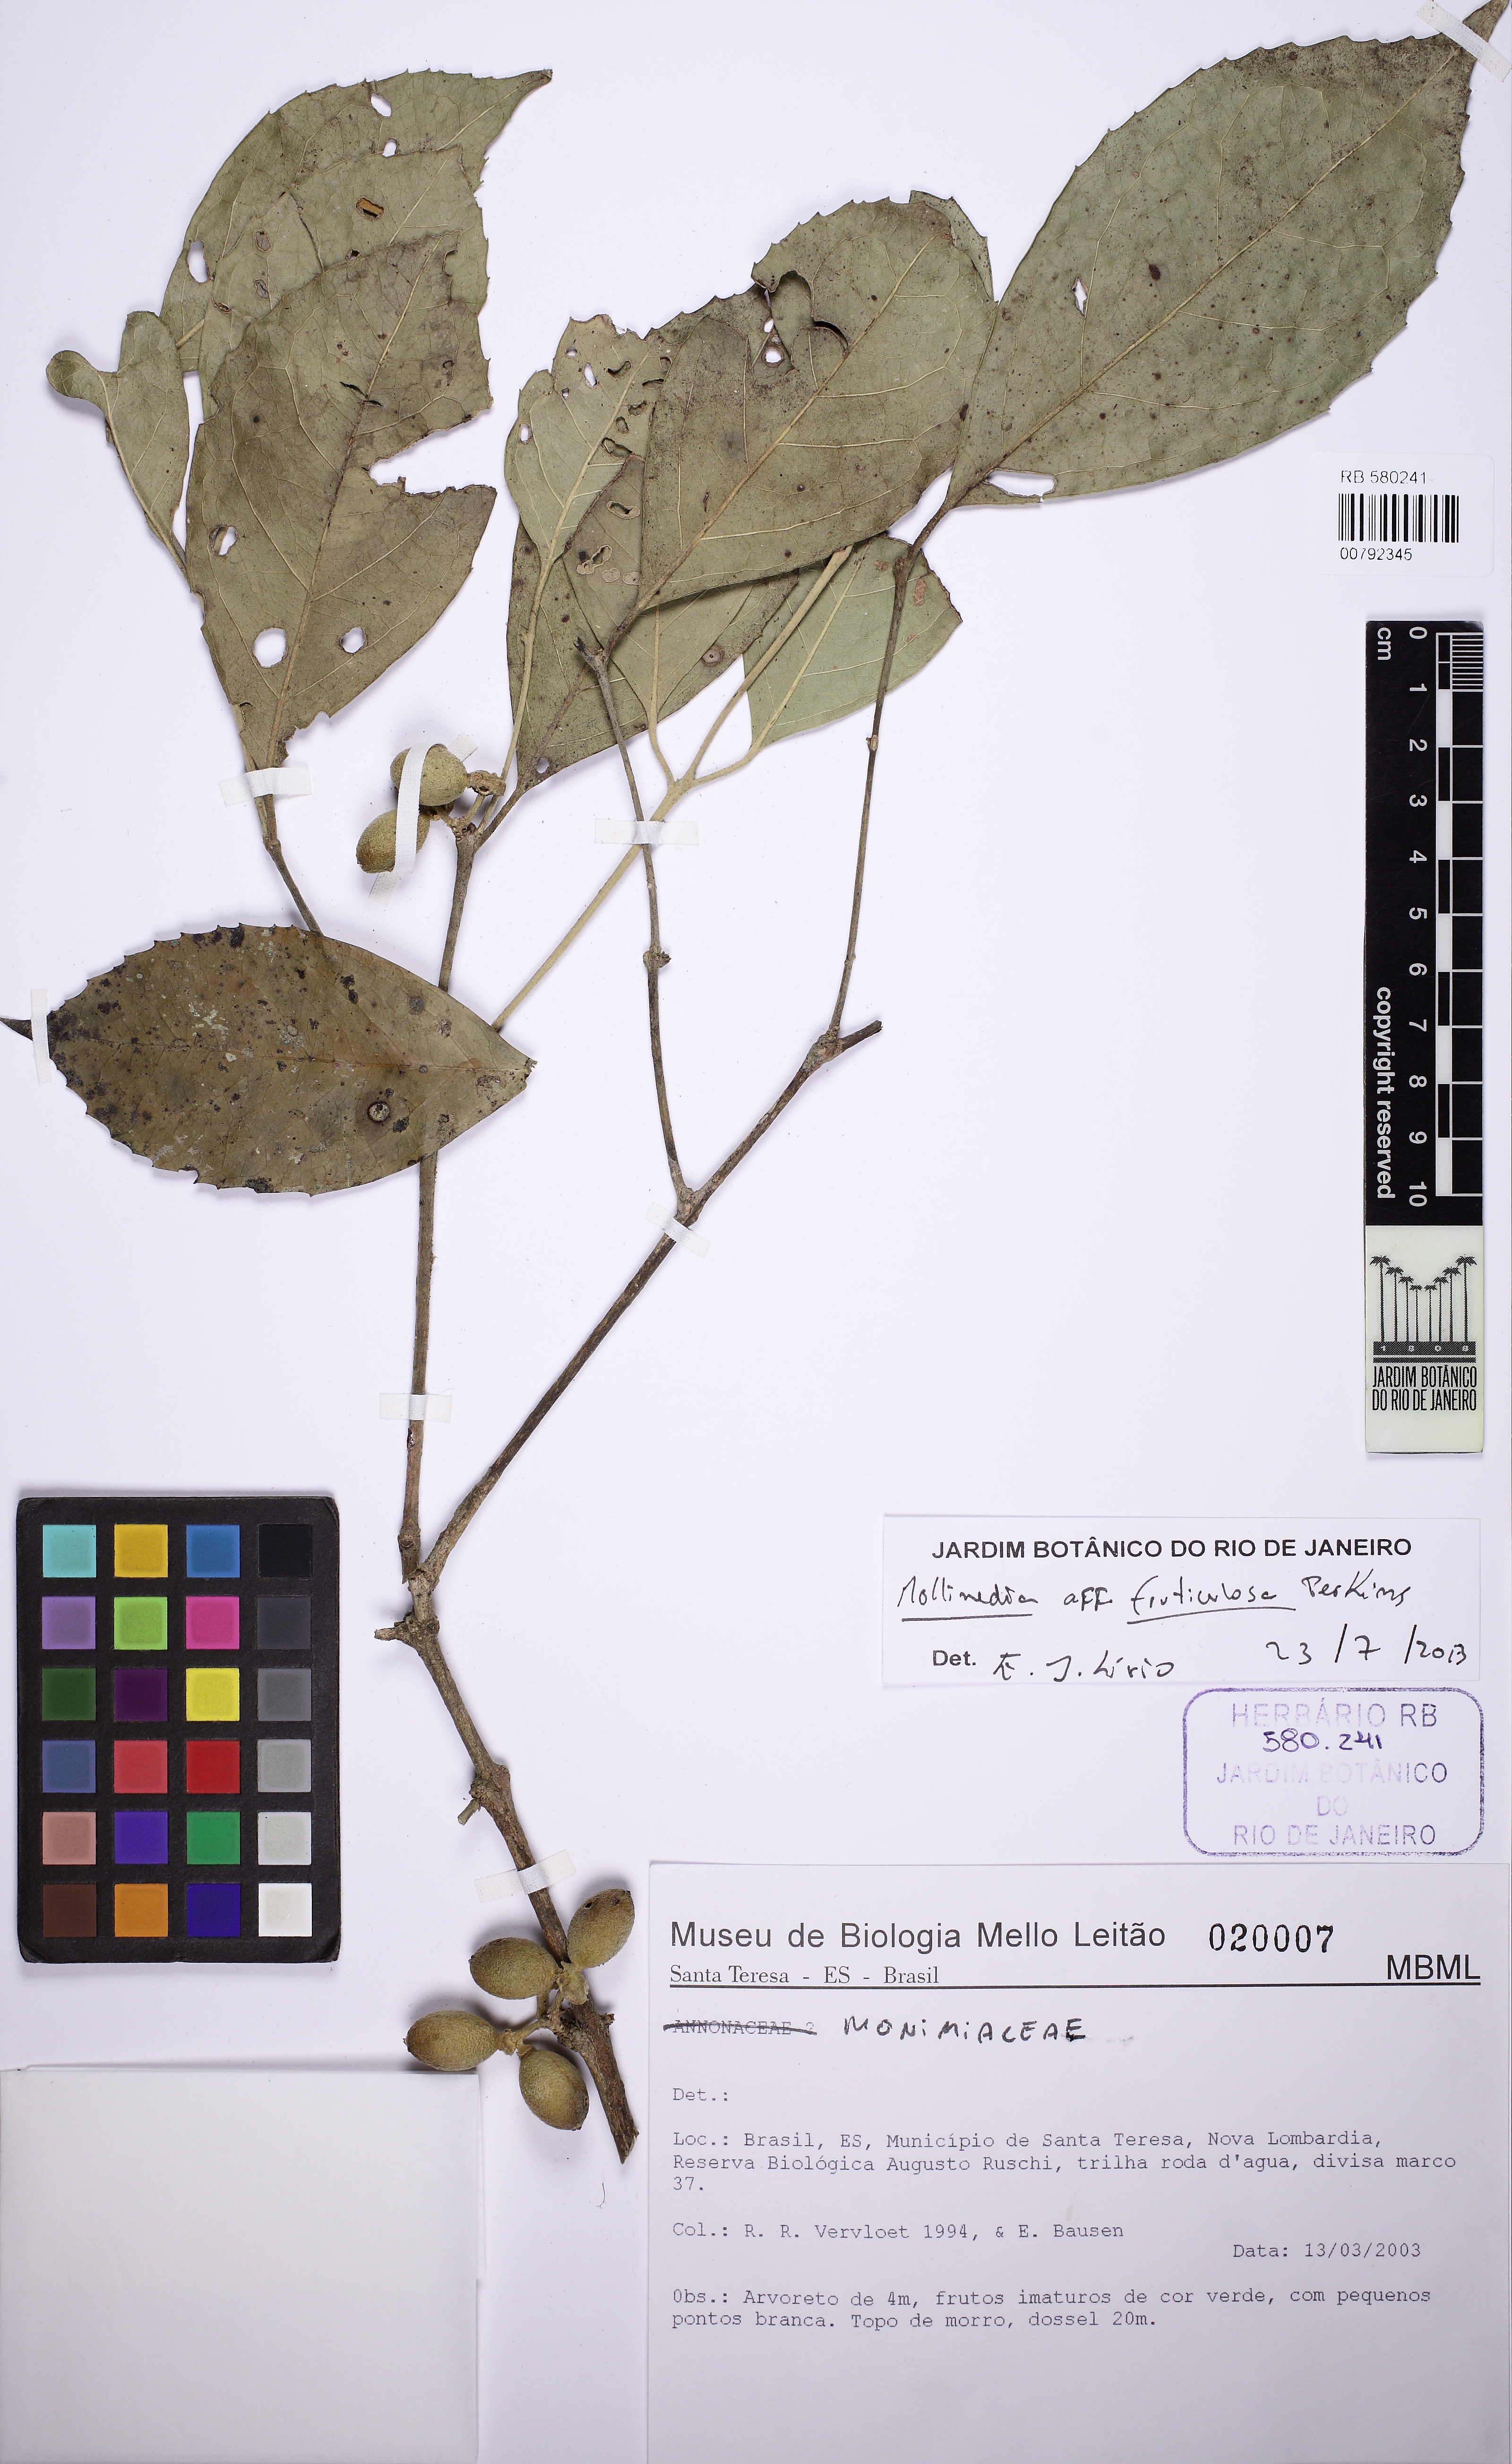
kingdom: Plantae
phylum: Tracheophyta
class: Magnoliopsida
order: Laurales
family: Monimiaceae
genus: Mollinedia
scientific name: Mollinedia fruticulosa
